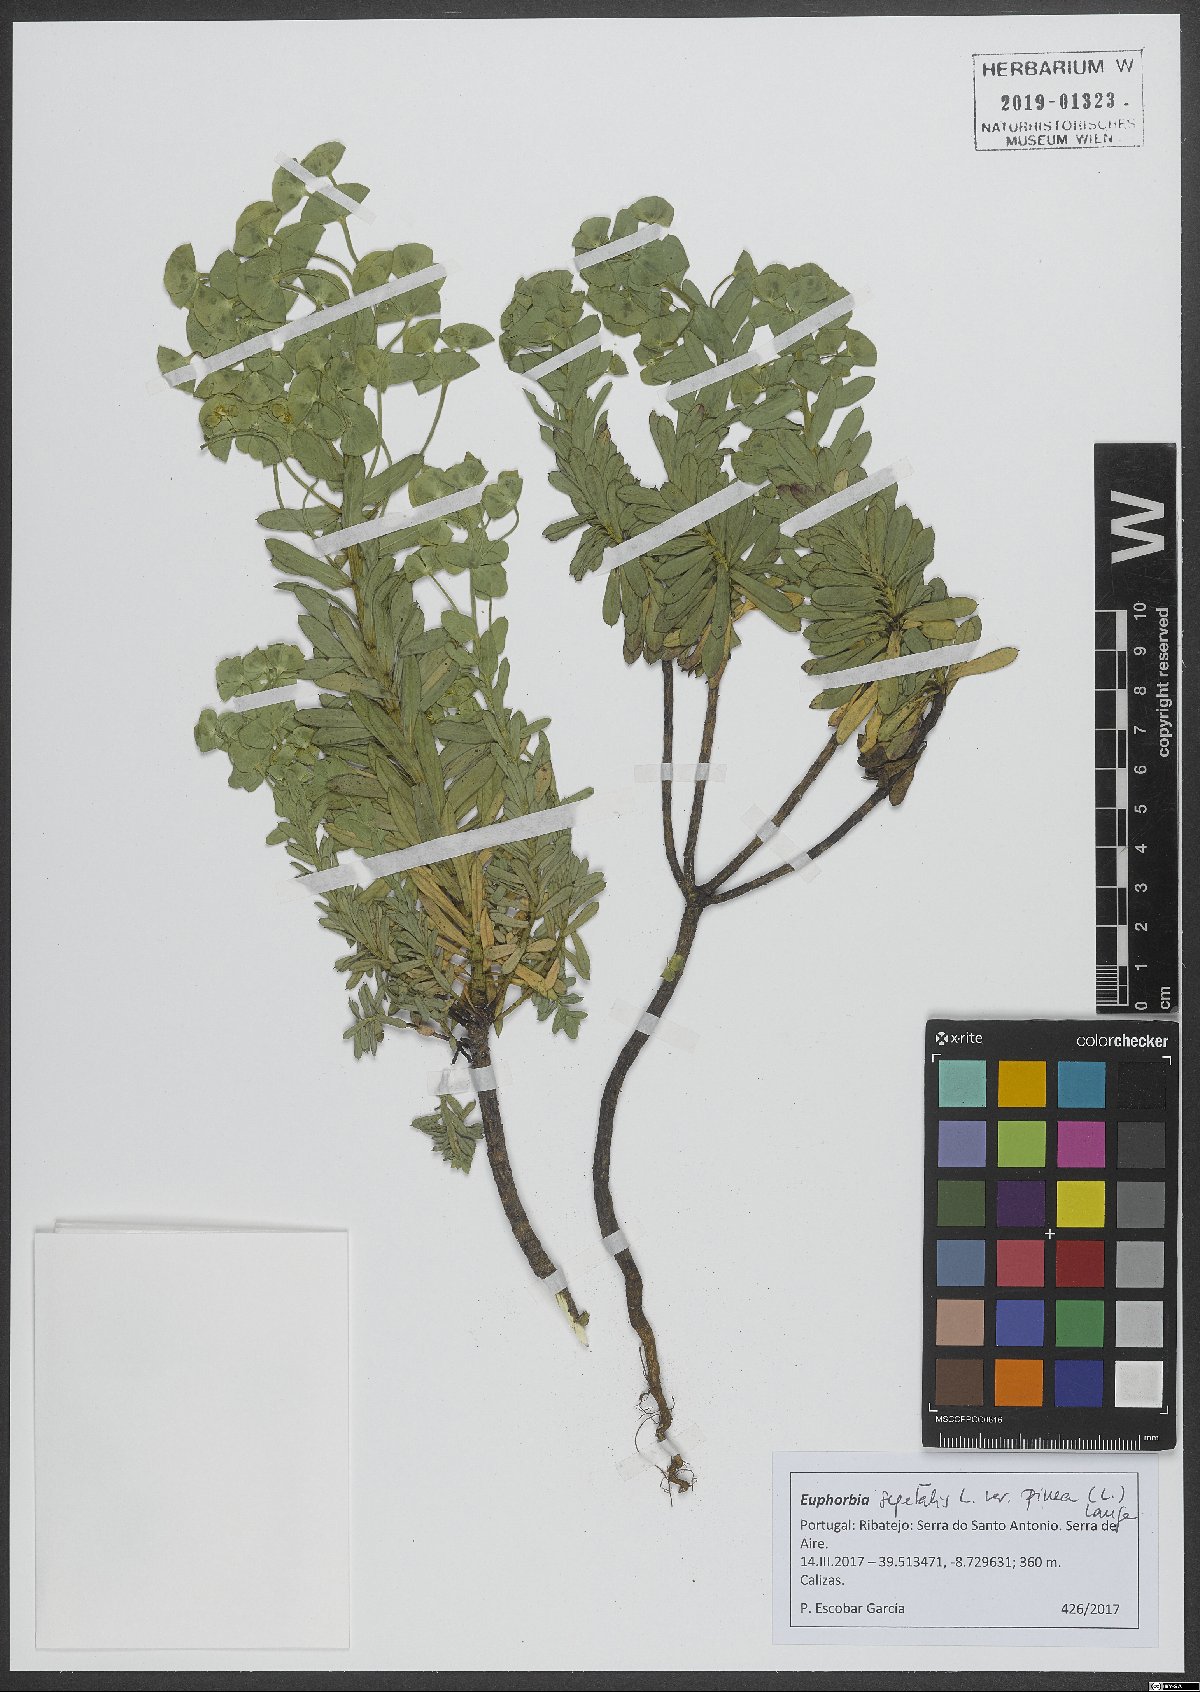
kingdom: Plantae
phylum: Tracheophyta
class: Magnoliopsida
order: Malpighiales
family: Euphorbiaceae
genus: Euphorbia
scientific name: Euphorbia segetalis
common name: Corn spurge
